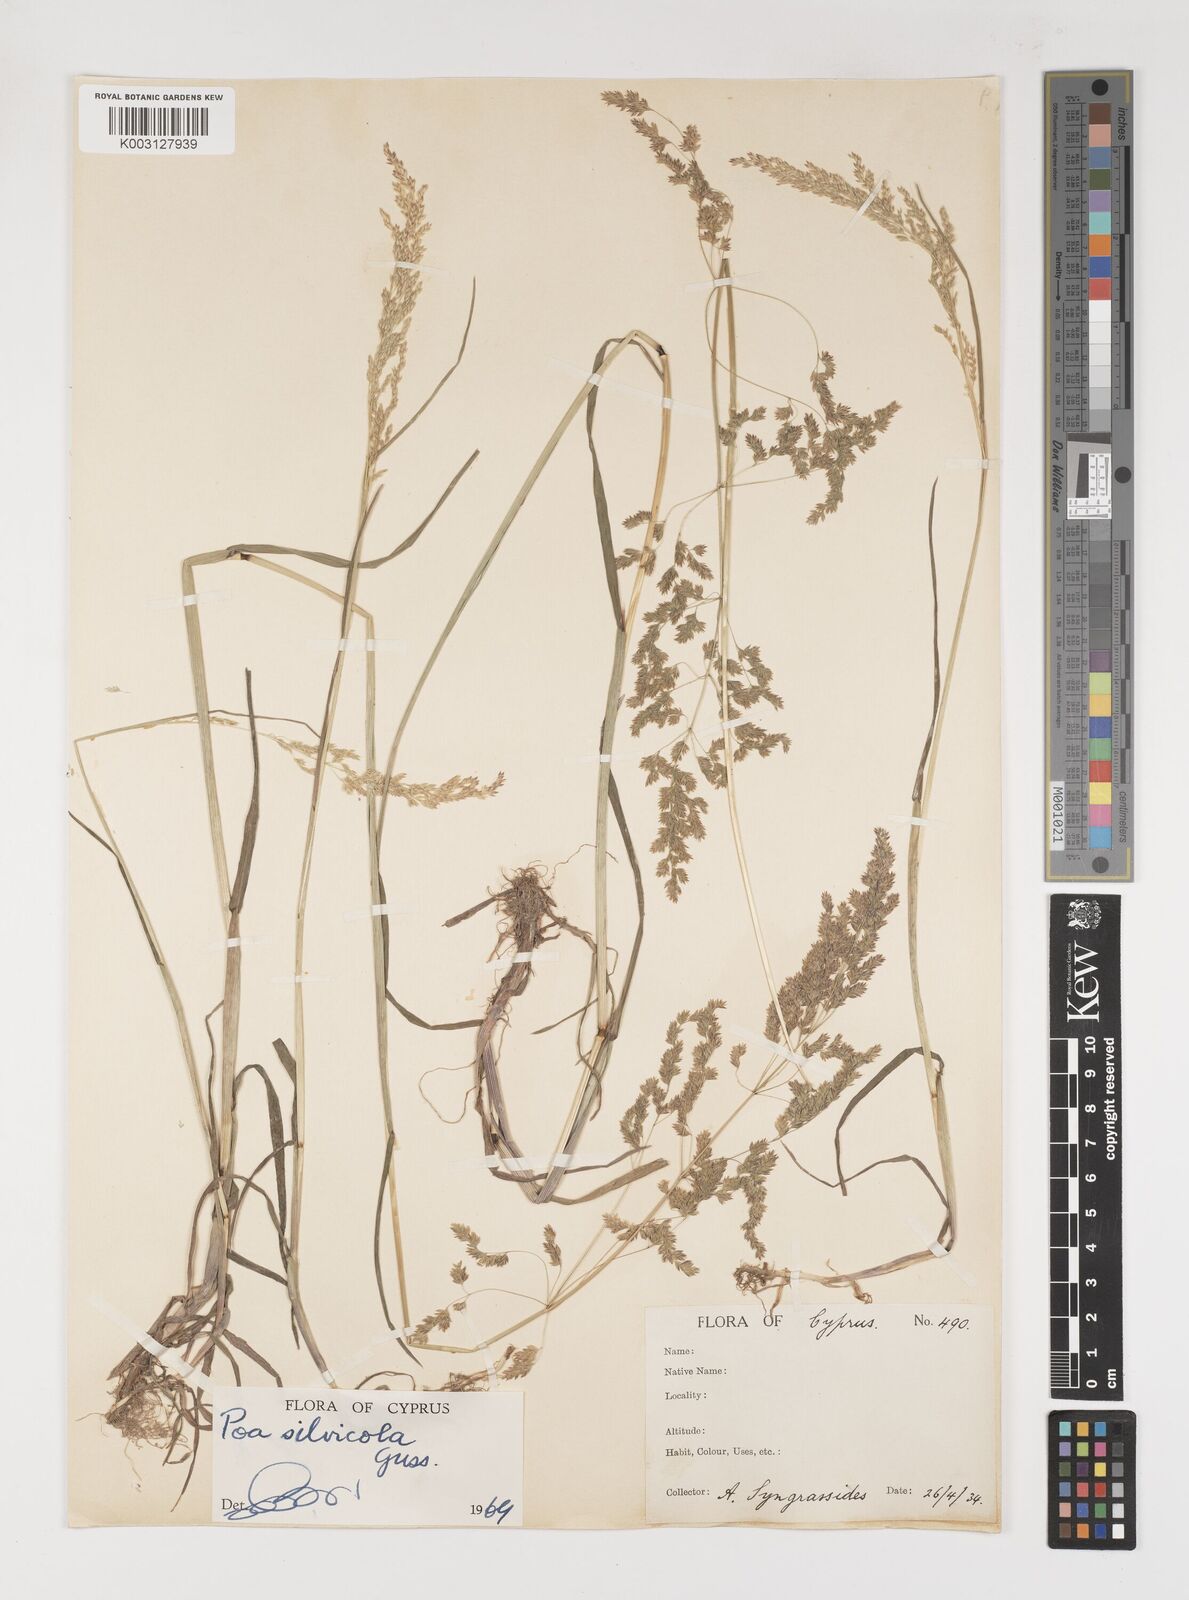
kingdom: Plantae
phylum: Tracheophyta
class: Liliopsida
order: Poales
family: Poaceae
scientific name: Poaceae
